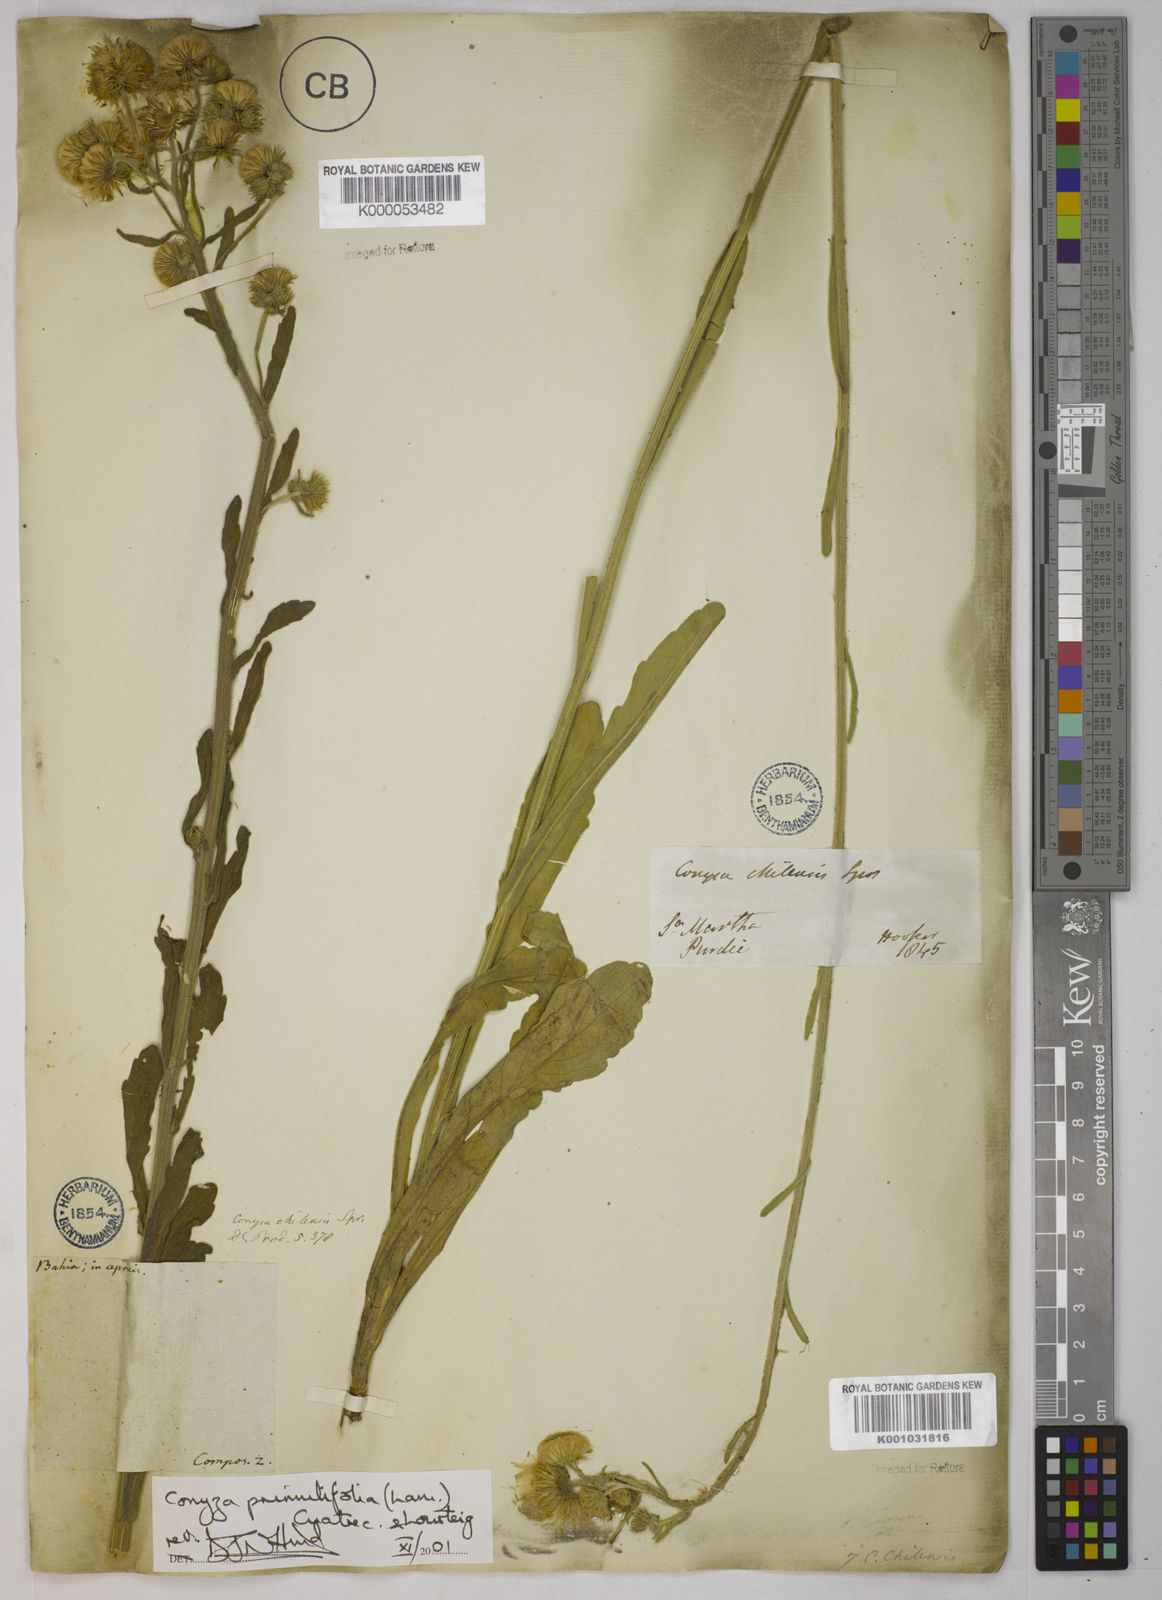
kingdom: Plantae
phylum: Tracheophyta
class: Magnoliopsida
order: Asterales
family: Asteraceae
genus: Erigeron
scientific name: Erigeron primulifolius
